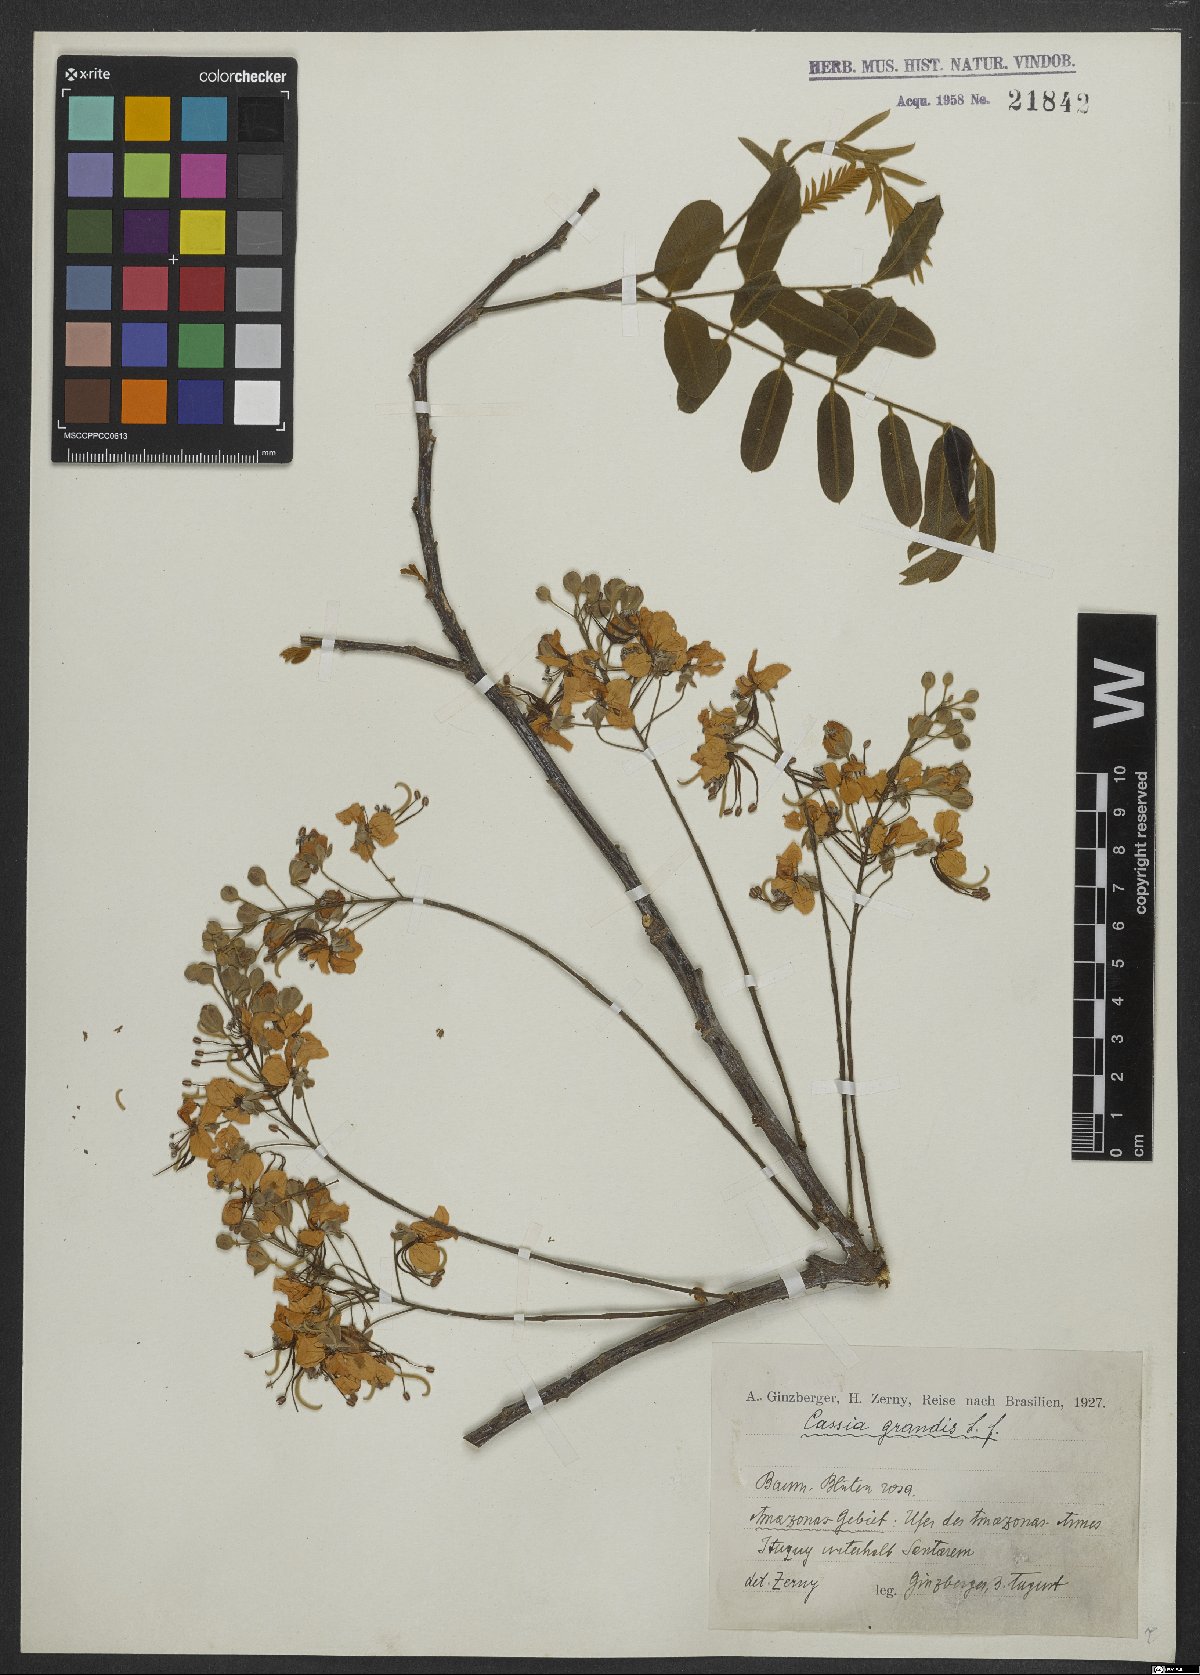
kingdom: Plantae
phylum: Tracheophyta
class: Magnoliopsida
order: Fabales
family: Fabaceae
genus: Cassia
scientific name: Cassia grandis
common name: Appleblossom cassia
